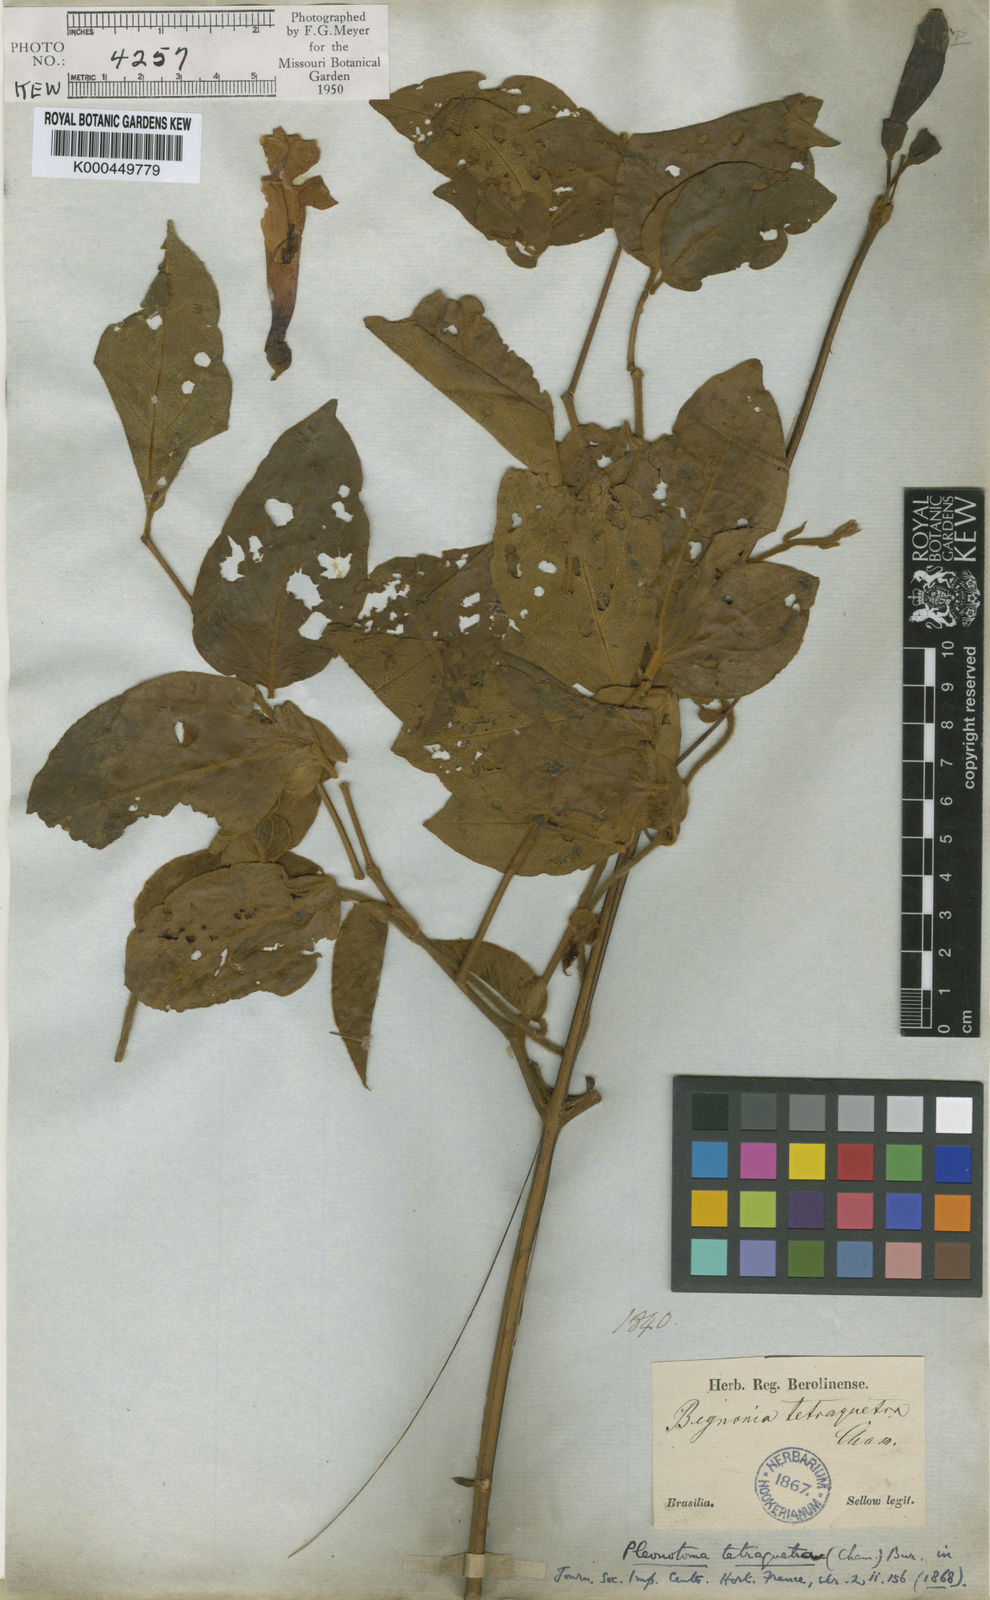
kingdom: Plantae
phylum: Tracheophyta
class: Magnoliopsida
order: Lamiales
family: Bignoniaceae
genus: Pleonotoma
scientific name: Pleonotoma tetraquetra
